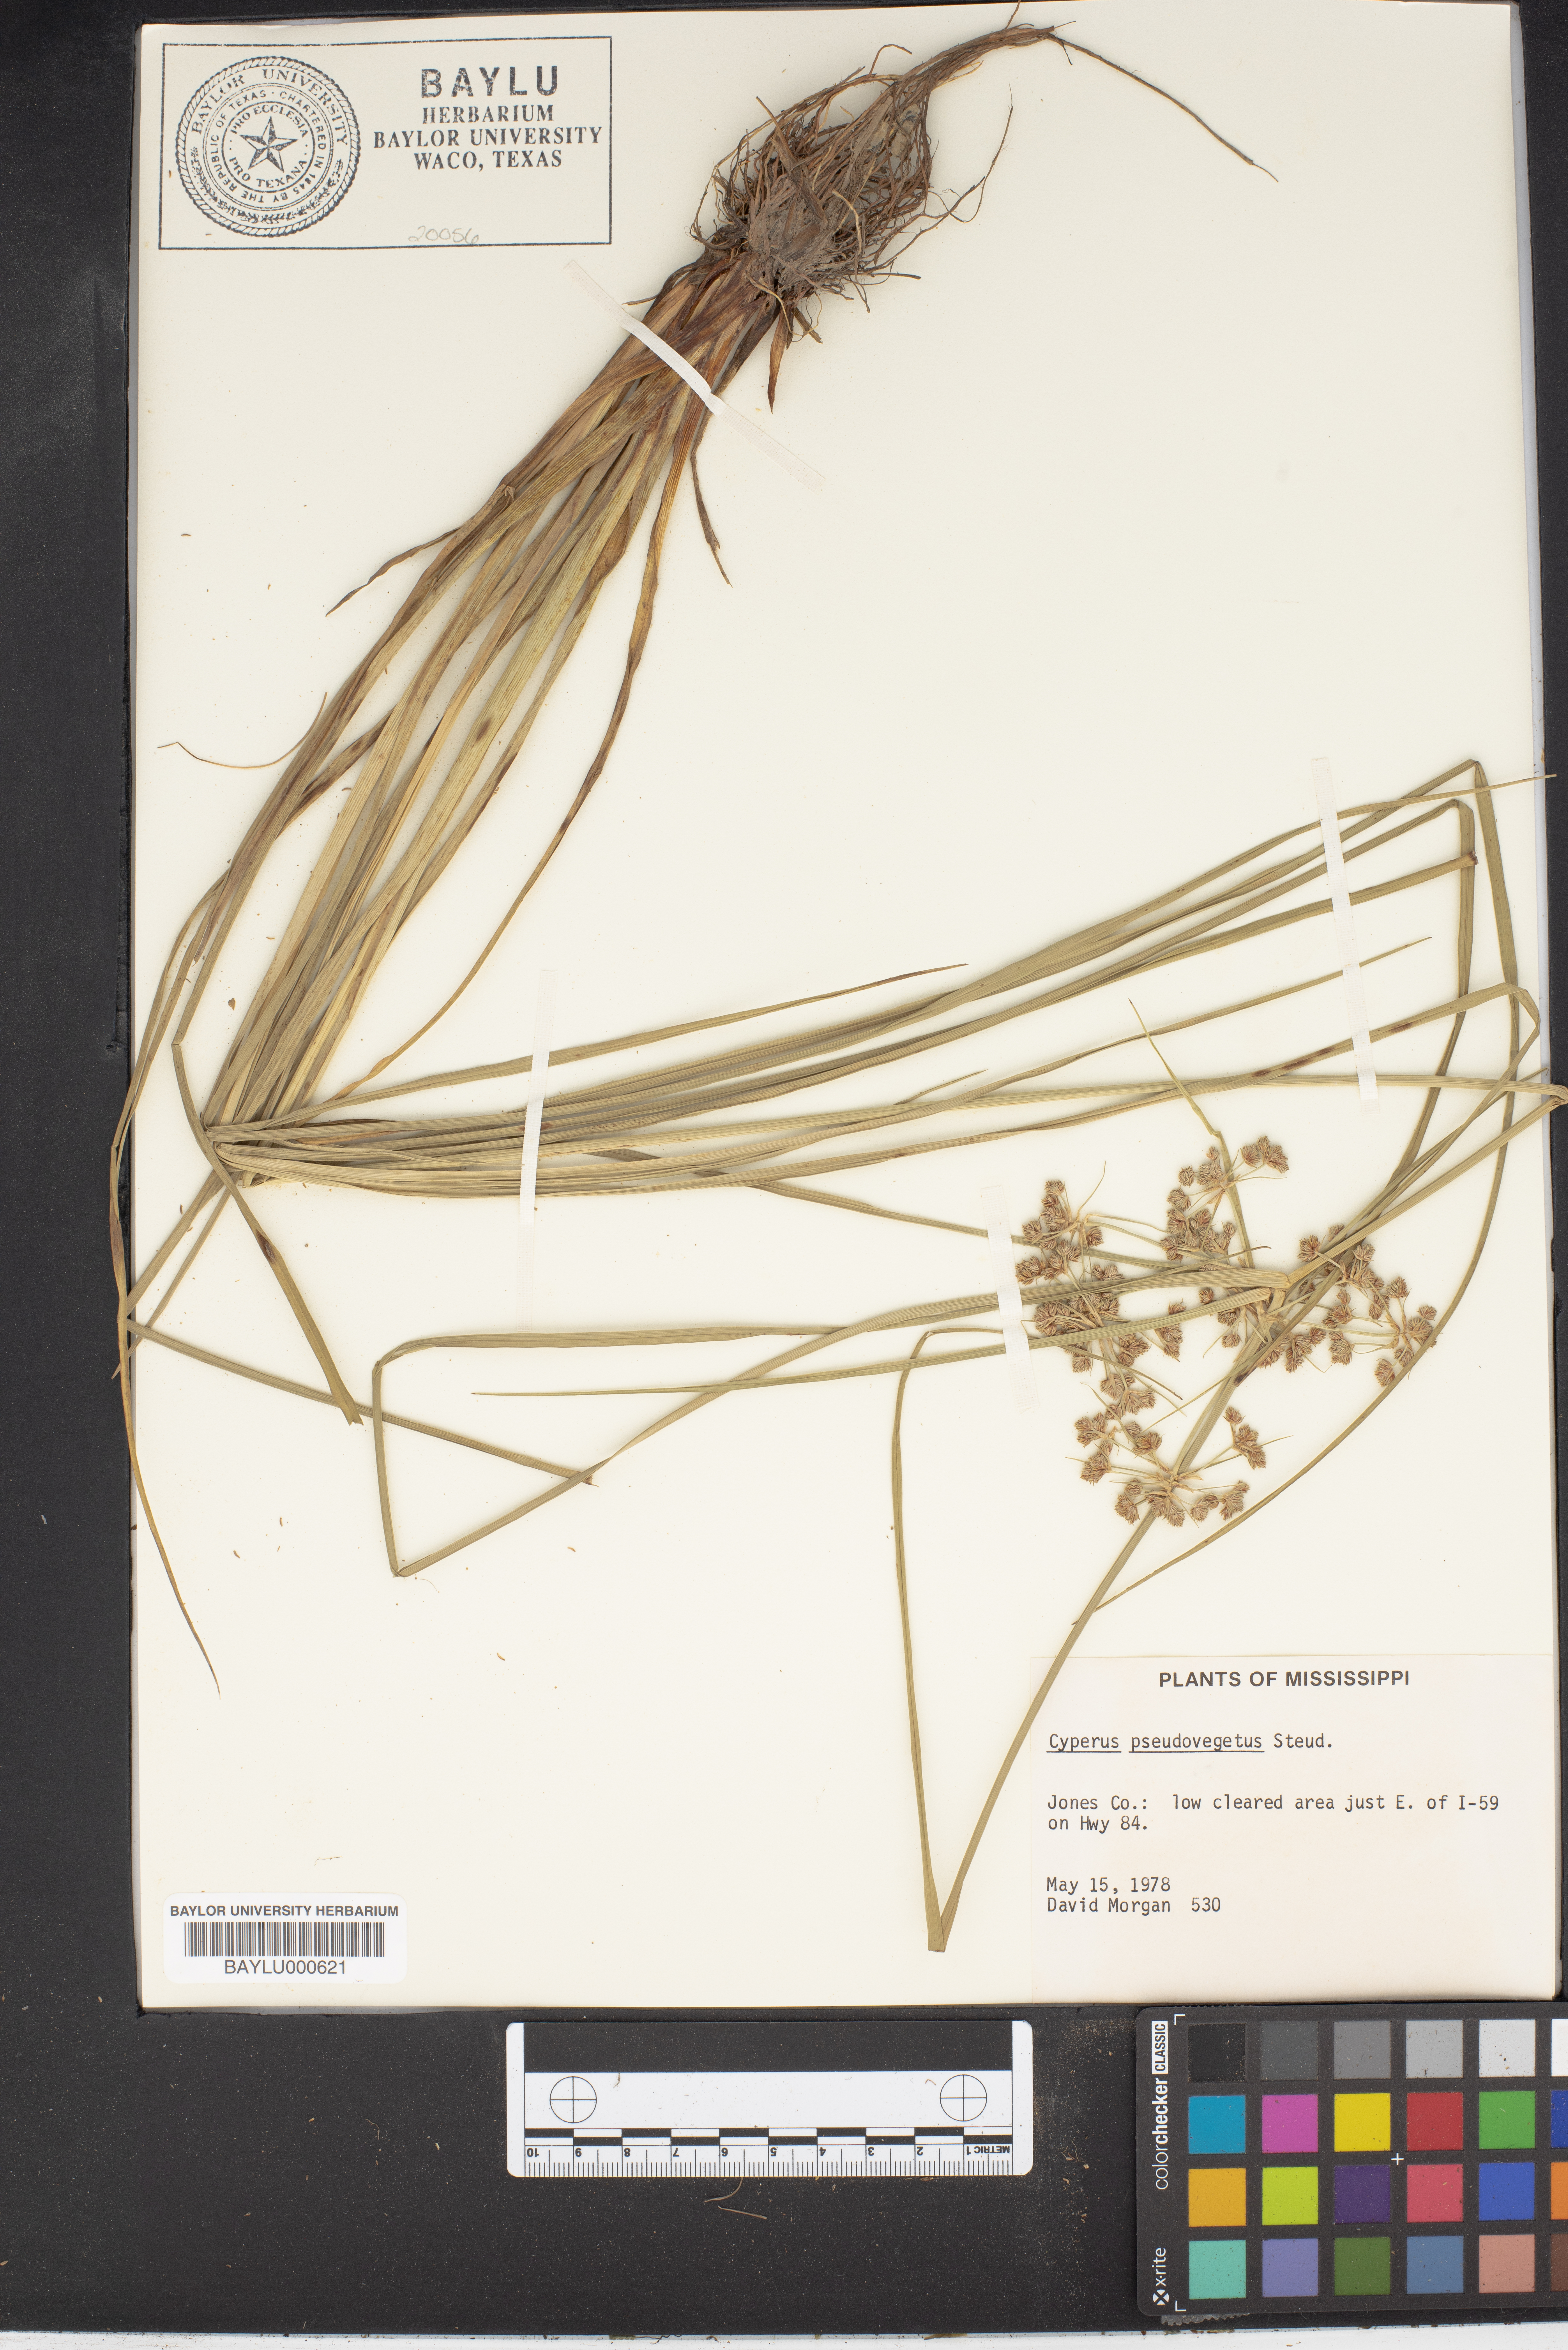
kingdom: Plantae
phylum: Tracheophyta
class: Liliopsida
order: Poales
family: Cyperaceae
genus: Cyperus
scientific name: Cyperus pseudovegetus
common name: Marsh flat sedge
